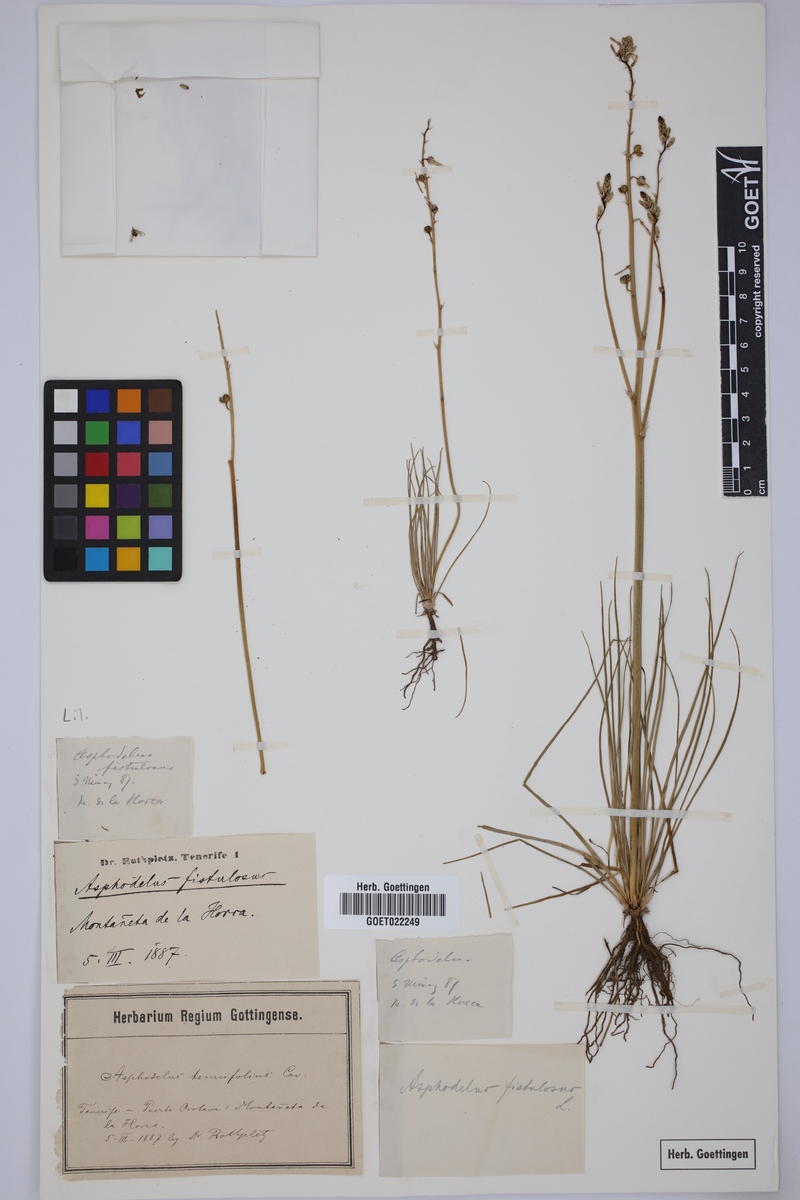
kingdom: Plantae
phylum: Tracheophyta
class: Liliopsida
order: Asparagales
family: Asphodelaceae
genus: Asphodelus
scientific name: Asphodelus fistulosus
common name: Onionweed
